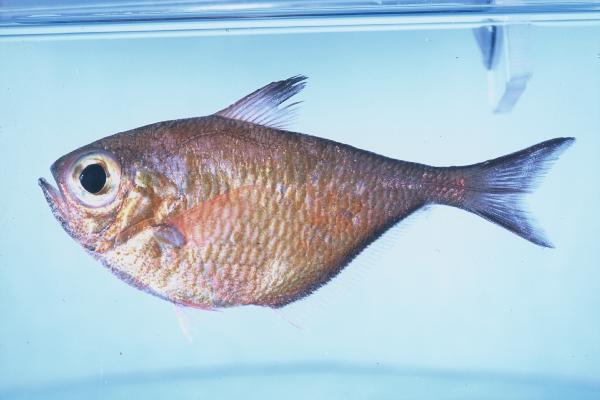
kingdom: Animalia
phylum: Chordata
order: Perciformes
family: Pempheridae
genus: Pempheris
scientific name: Pempheris connelli
